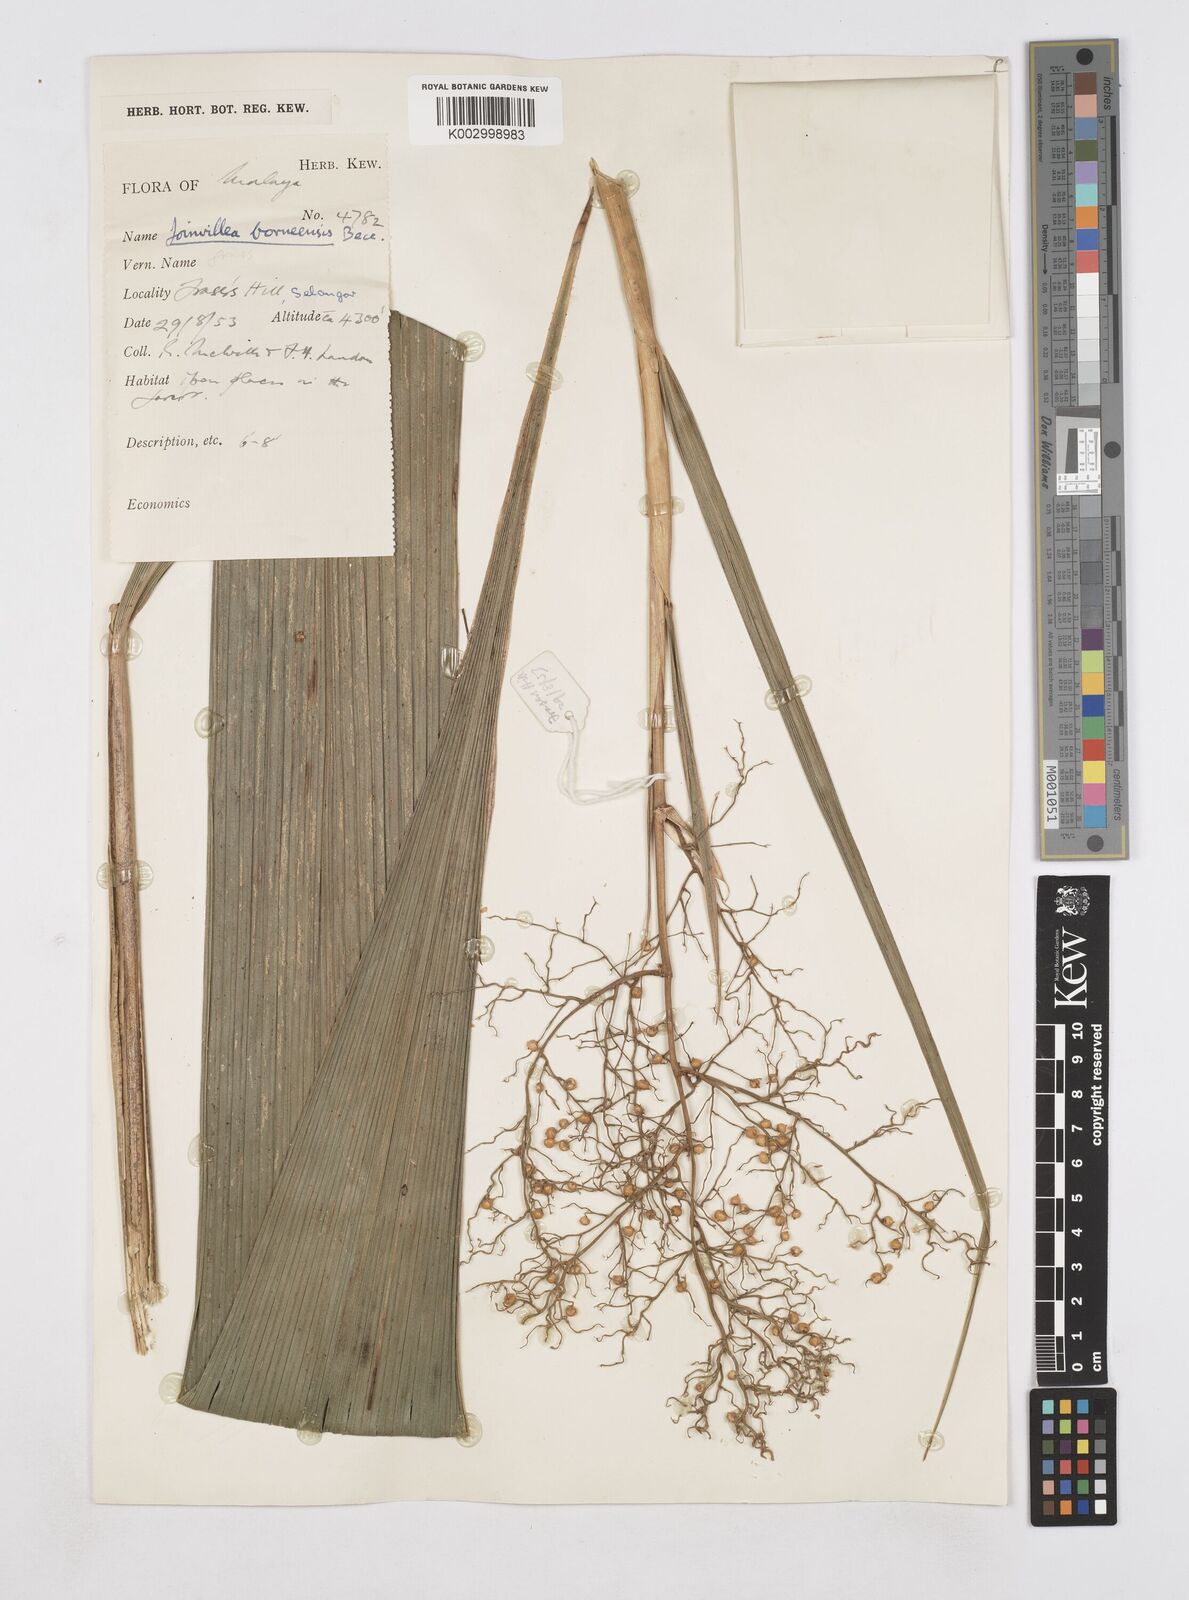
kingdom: Plantae
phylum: Tracheophyta
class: Liliopsida
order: Poales
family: Joinvilleaceae
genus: Joinvillea
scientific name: Joinvillea borneensis
